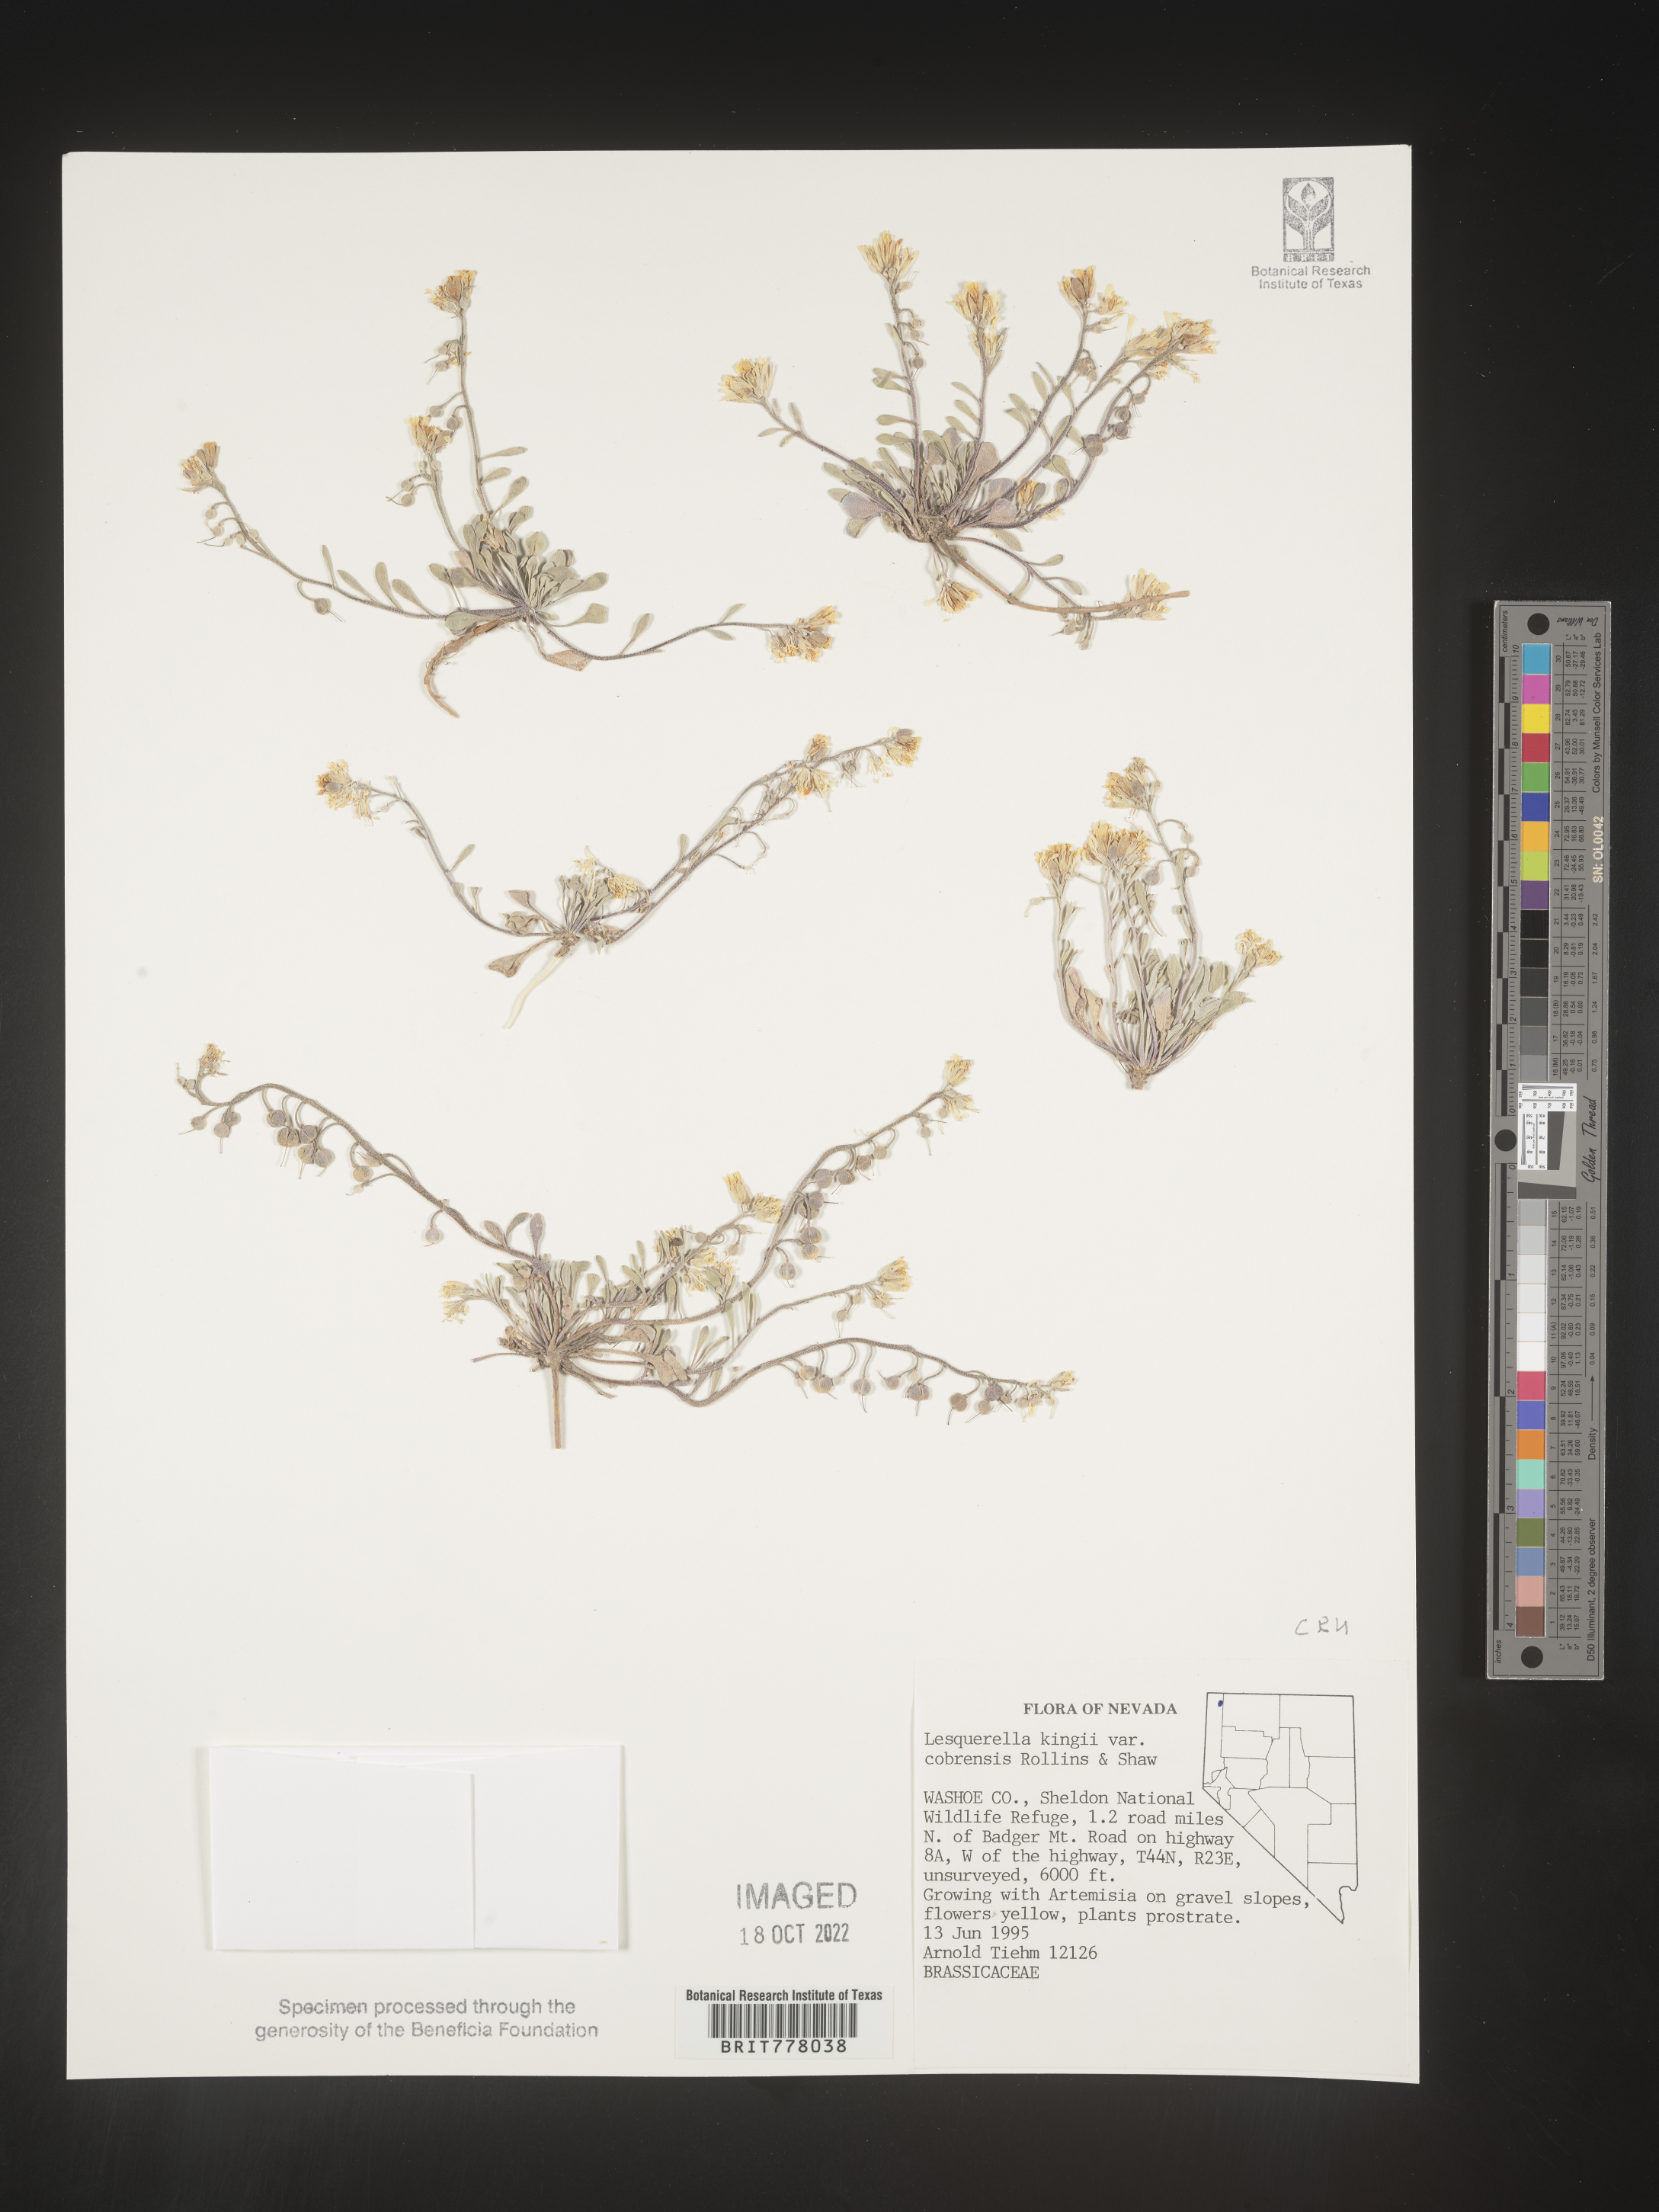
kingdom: Chromista
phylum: Cercozoa
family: Psammonobiotidae
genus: Lesquerella
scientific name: Lesquerella
